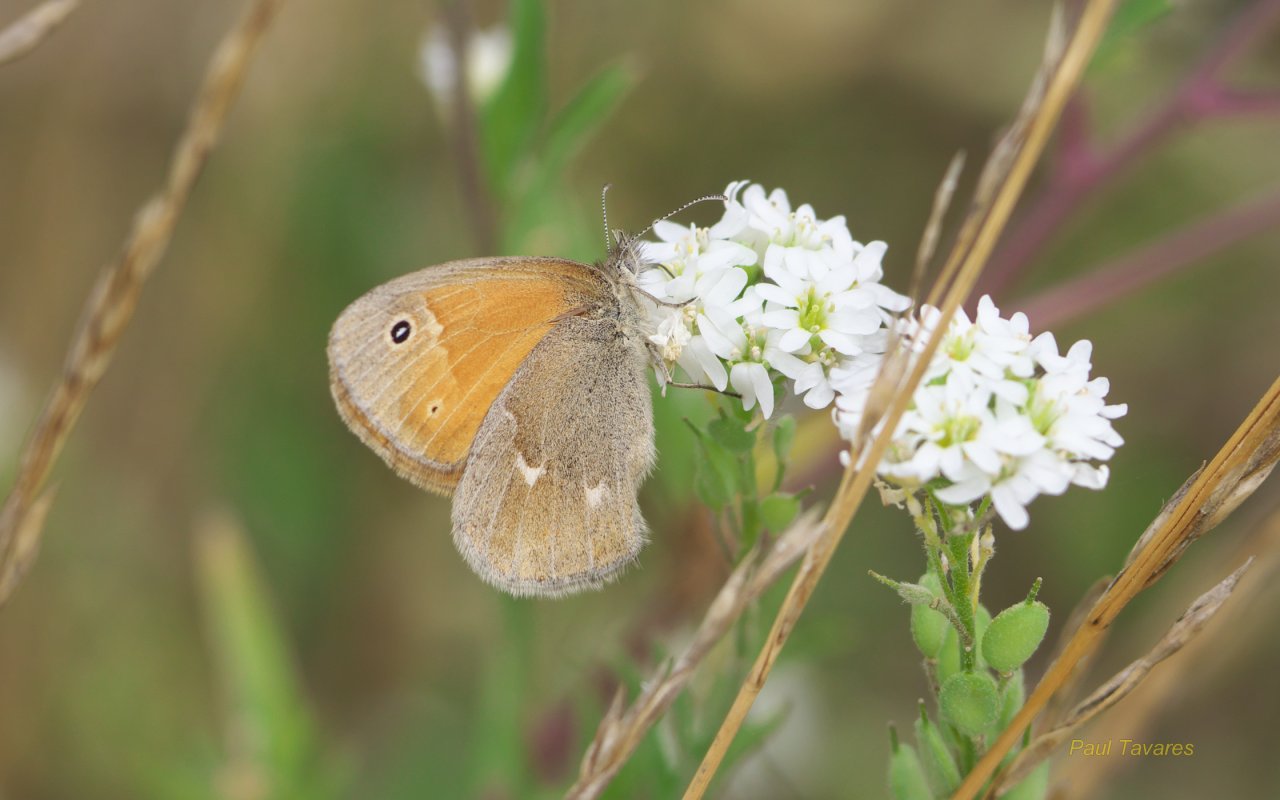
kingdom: Animalia
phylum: Arthropoda
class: Insecta
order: Lepidoptera
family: Nymphalidae
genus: Coenonympha
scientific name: Coenonympha tullia
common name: Large Heath
